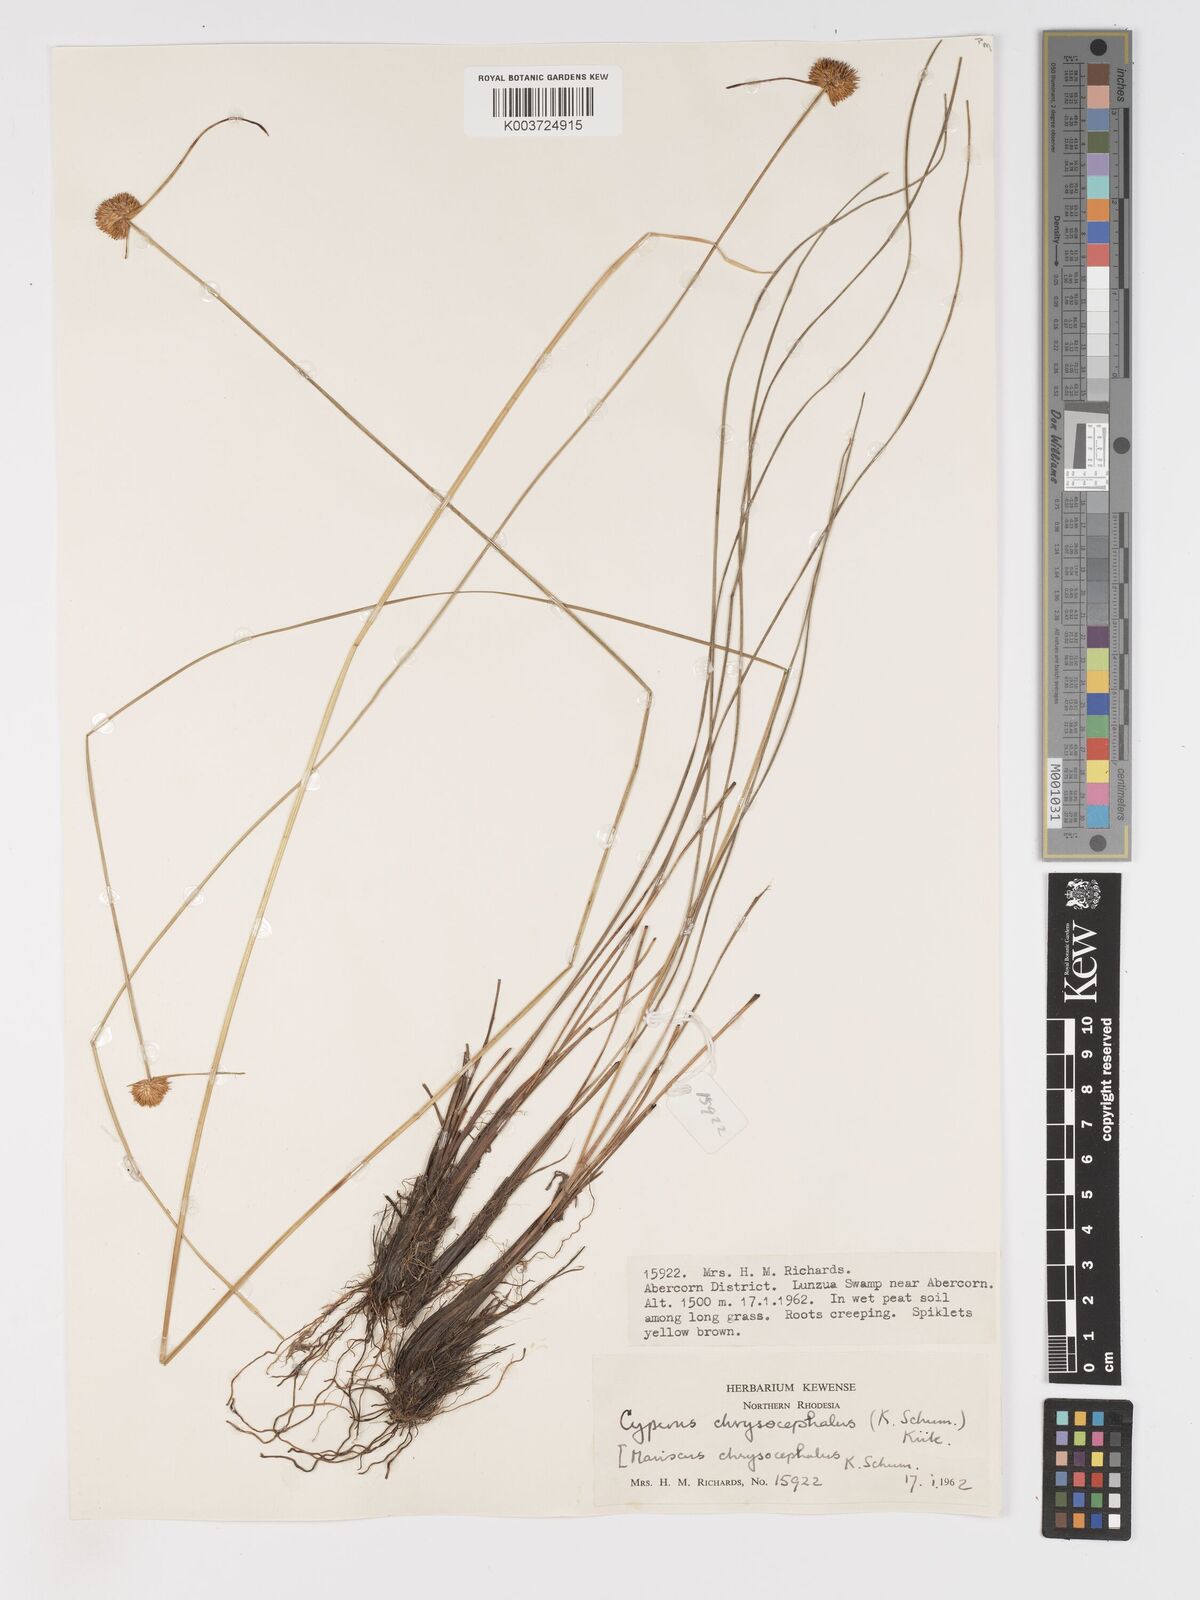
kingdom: Plantae
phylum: Tracheophyta
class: Liliopsida
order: Poales
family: Cyperaceae
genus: Cyperus
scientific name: Cyperus chrysocephalus
